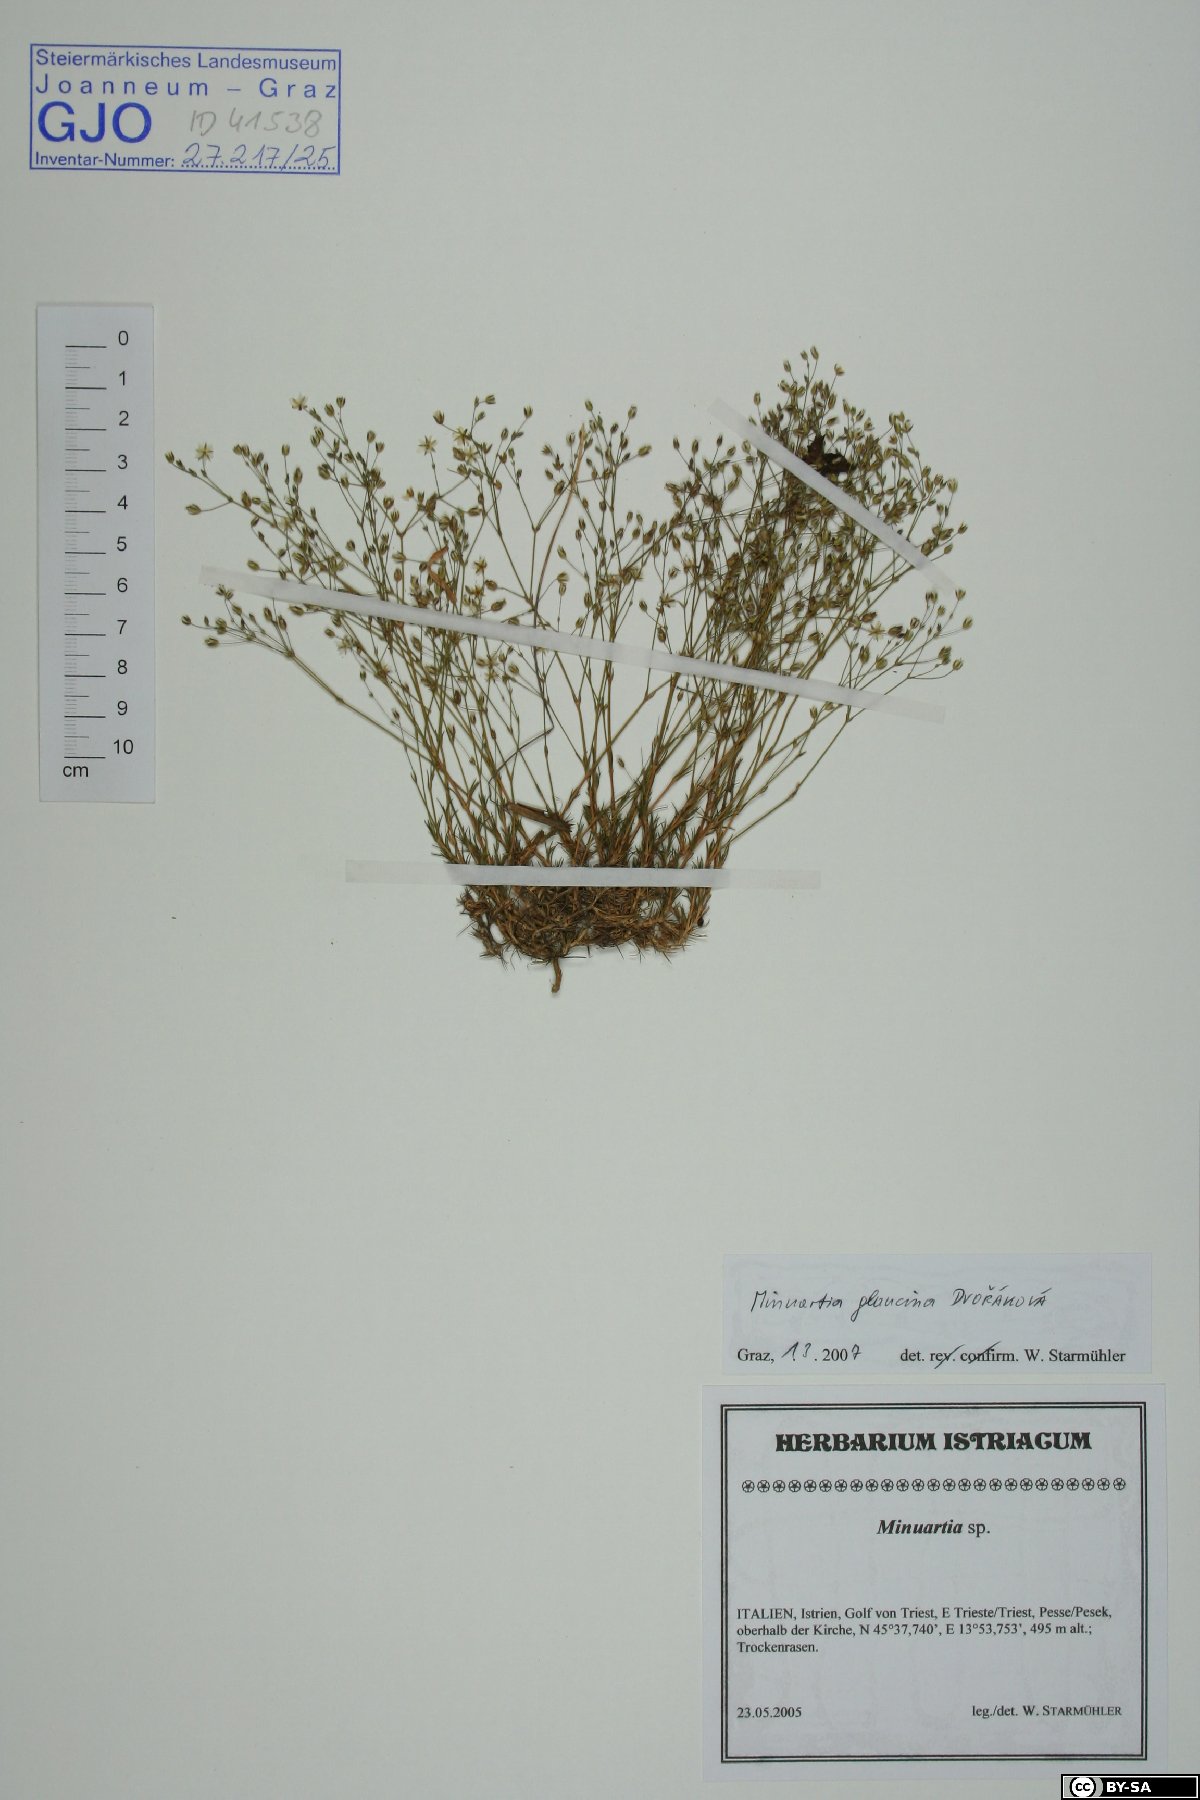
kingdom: Plantae
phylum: Tracheophyta
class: Magnoliopsida
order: Caryophyllales
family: Caryophyllaceae
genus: Sabulina
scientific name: Sabulina glaucina
